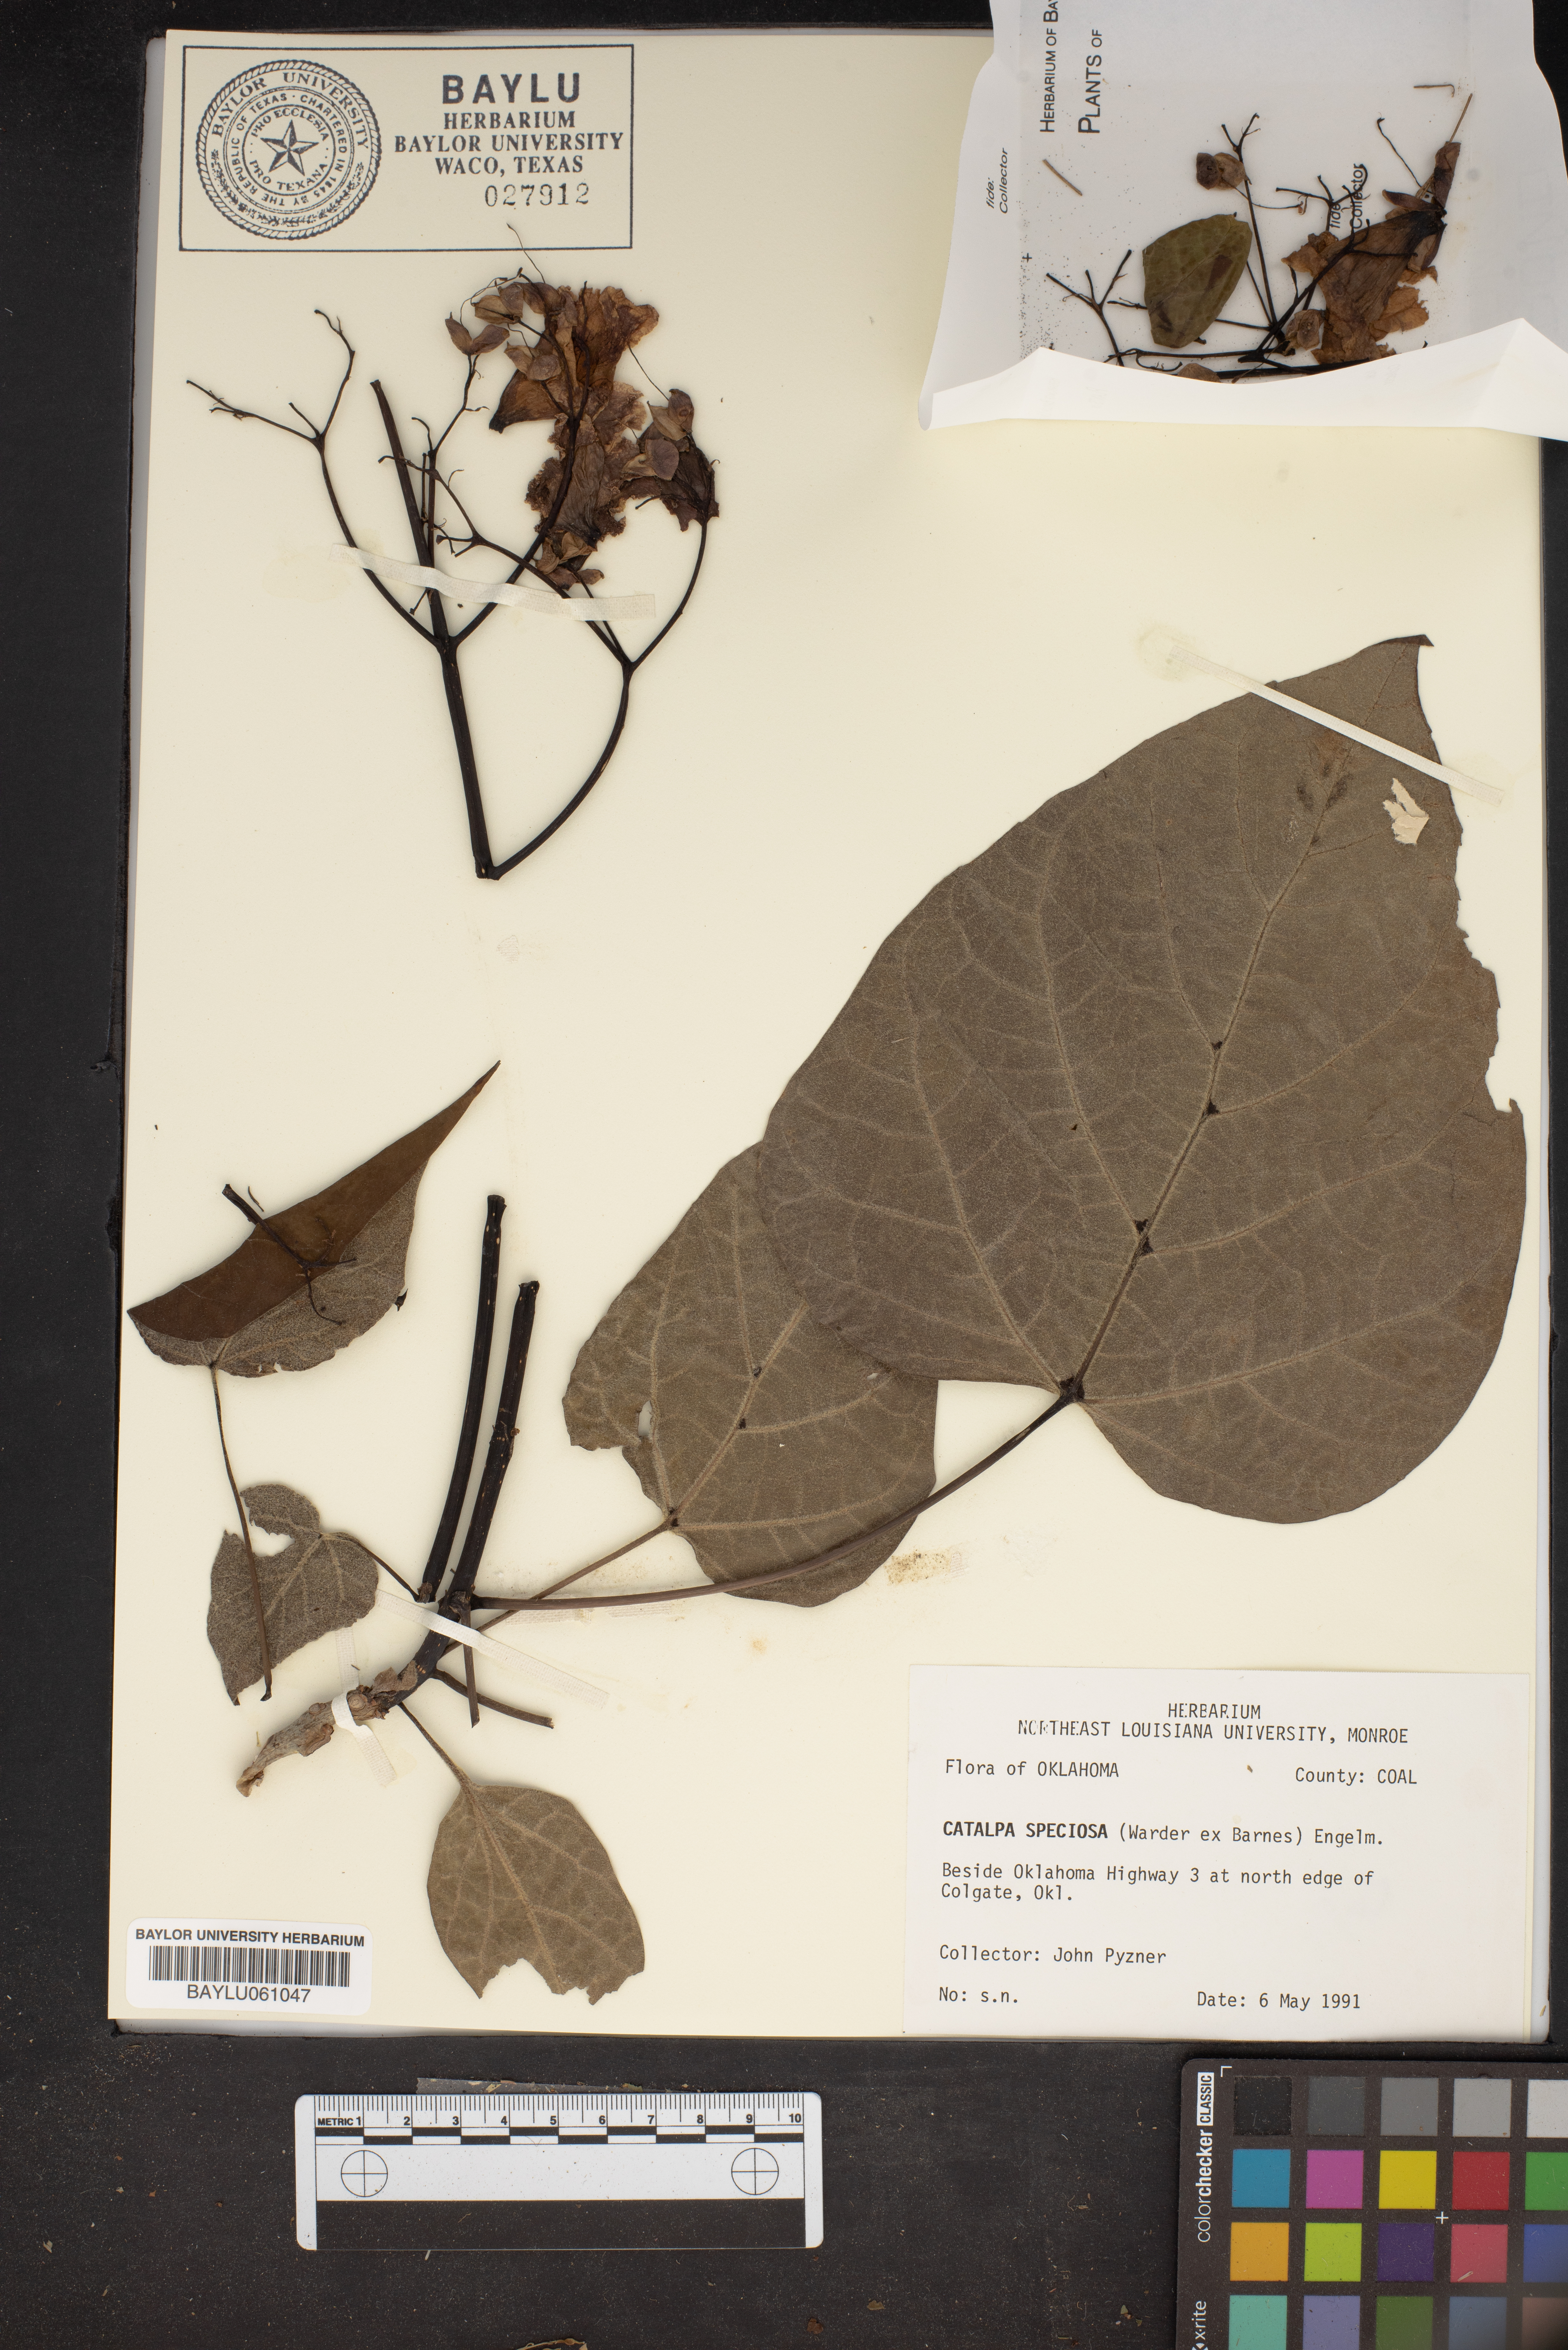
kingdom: Plantae
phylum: Tracheophyta
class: Magnoliopsida
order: Lamiales
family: Bignoniaceae
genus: Catalpa
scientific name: Catalpa speciosa
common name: Northern catalpa
